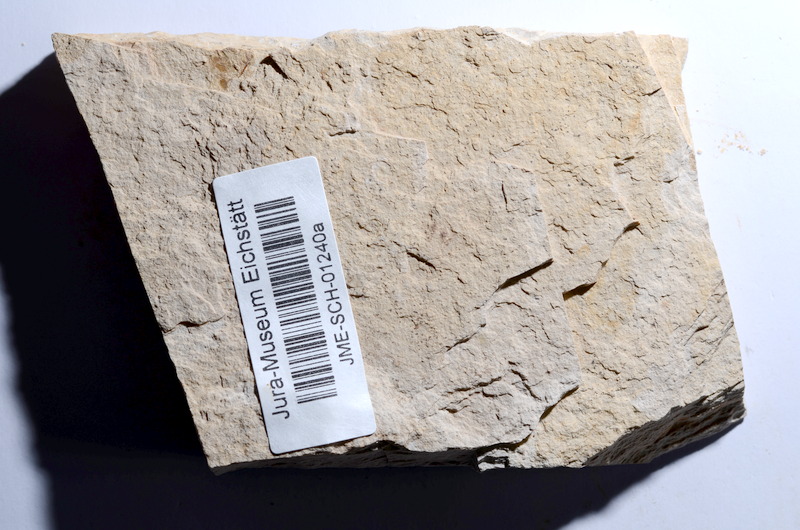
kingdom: Animalia
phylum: Chordata
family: Ascalaboidae
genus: Tharsis
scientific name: Tharsis dubius
